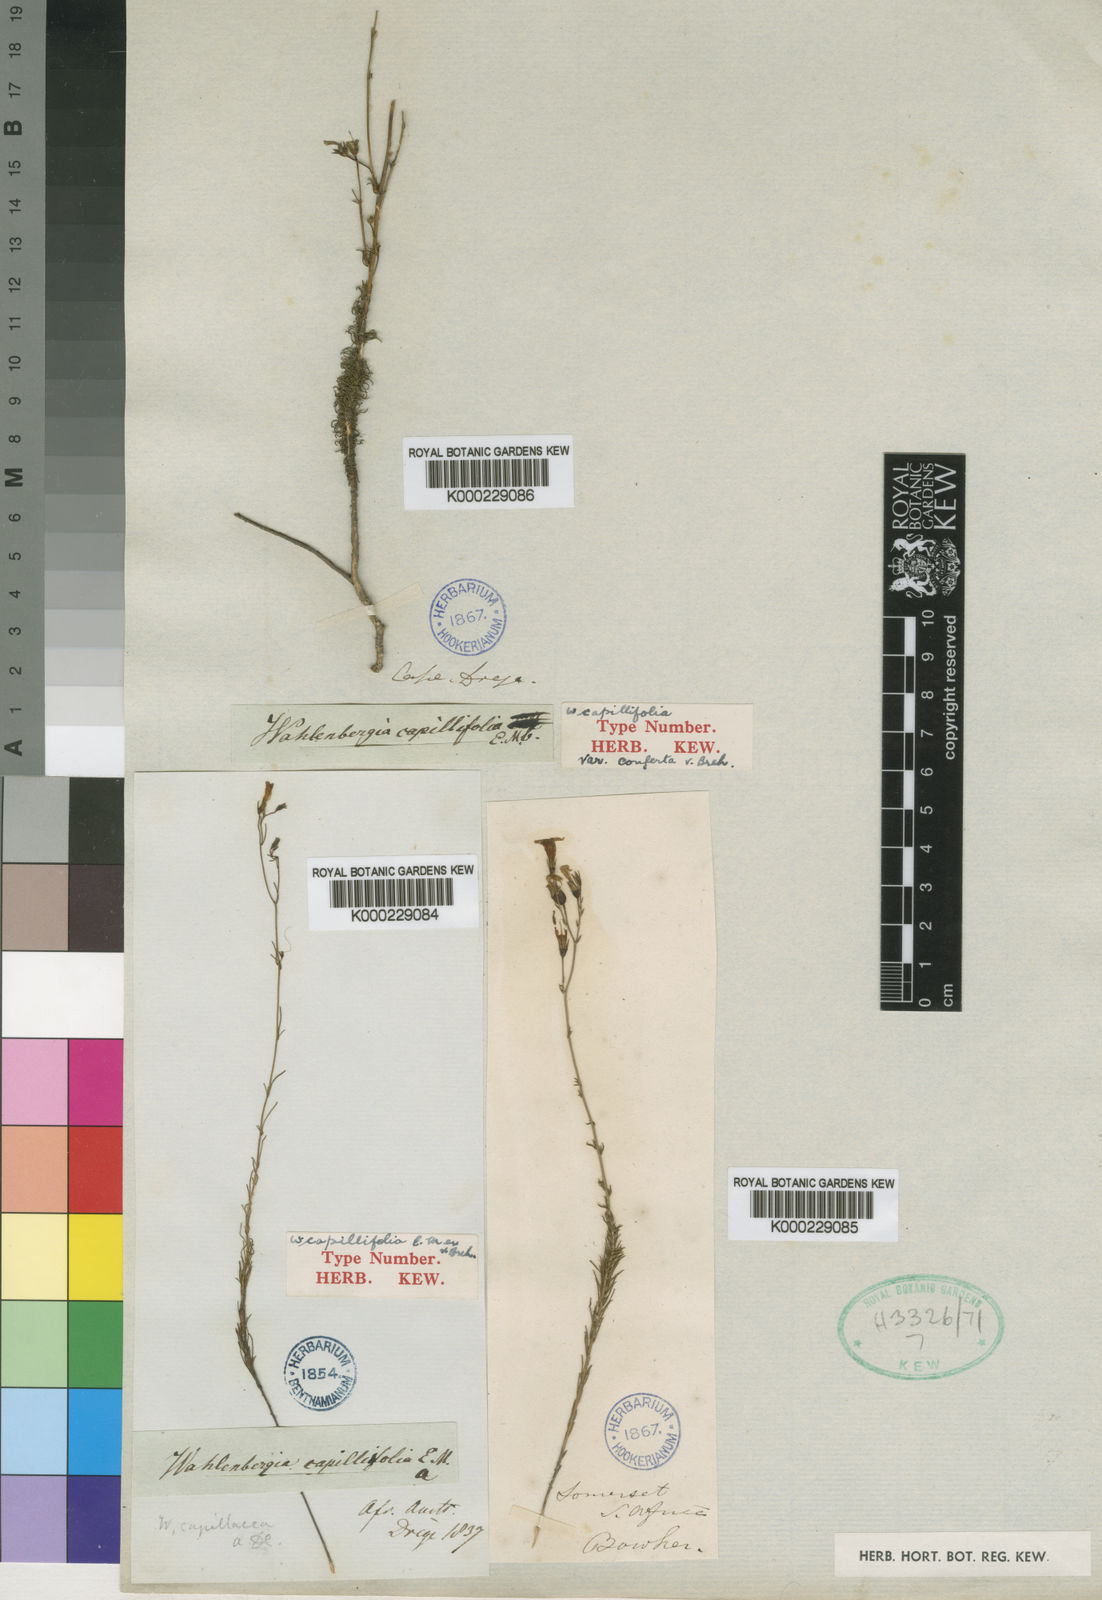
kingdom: Plantae
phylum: Tracheophyta
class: Magnoliopsida
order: Asterales
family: Campanulaceae
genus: Wahlenbergia
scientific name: Wahlenbergia
